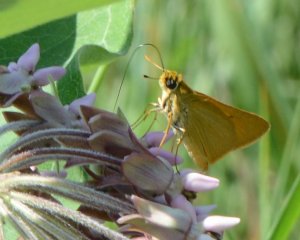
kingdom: Animalia
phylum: Arthropoda
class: Insecta
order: Lepidoptera
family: Hesperiidae
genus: Atrytone
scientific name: Atrytone delaware
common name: Delaware Skipper
